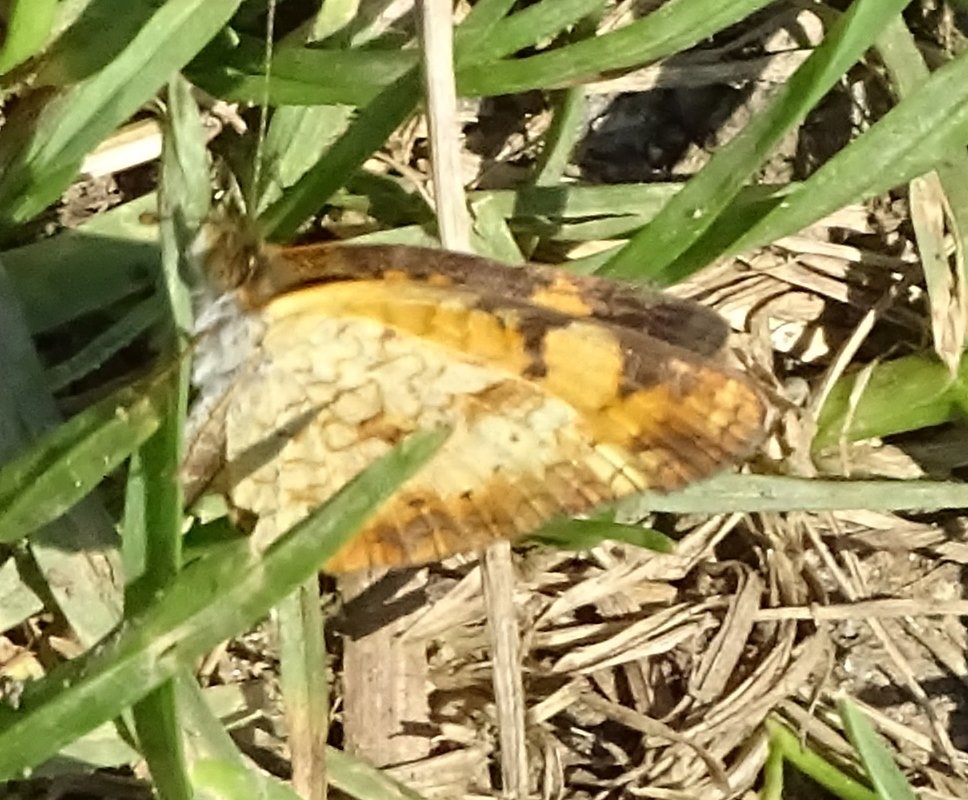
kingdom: Animalia
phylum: Arthropoda
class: Insecta
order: Lepidoptera
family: Nymphalidae
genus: Phyciodes
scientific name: Phyciodes
